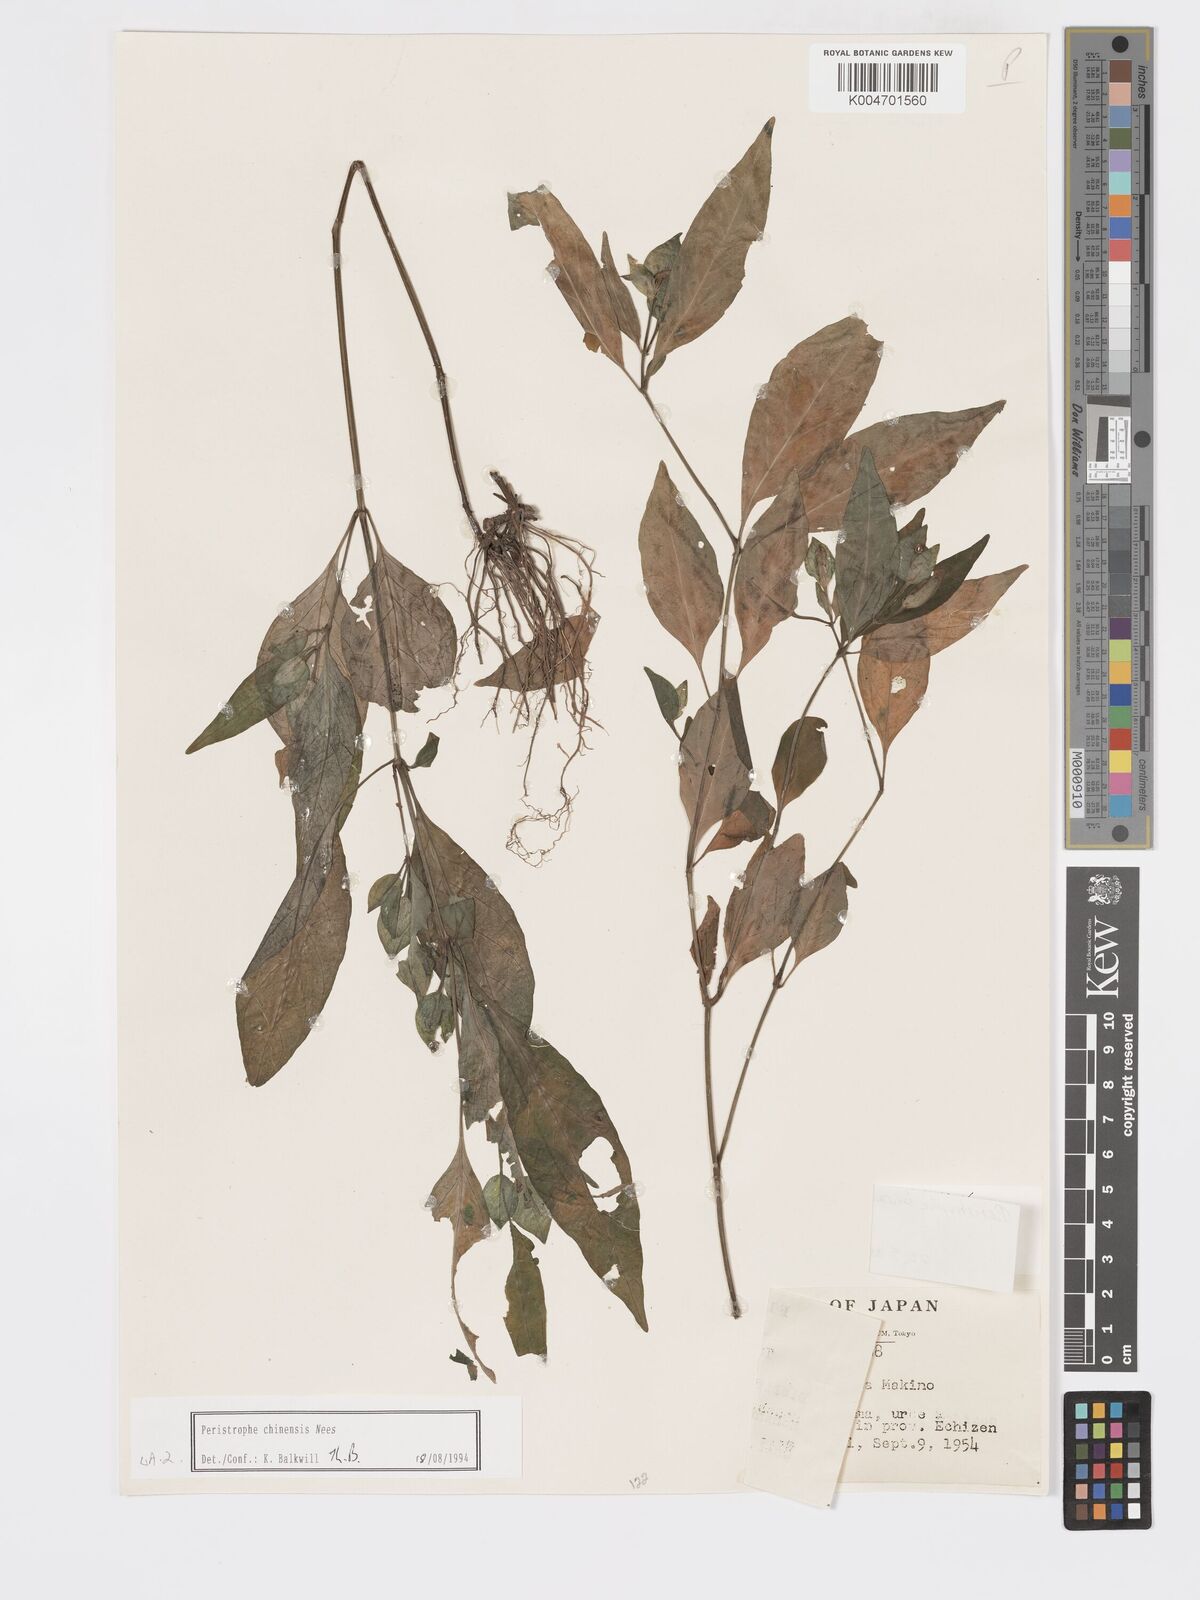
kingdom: Plantae
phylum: Tracheophyta
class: Magnoliopsida
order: Lamiales
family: Acanthaceae
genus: Dicliptera
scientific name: Dicliptera chinensis
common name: Chinese foldwing
